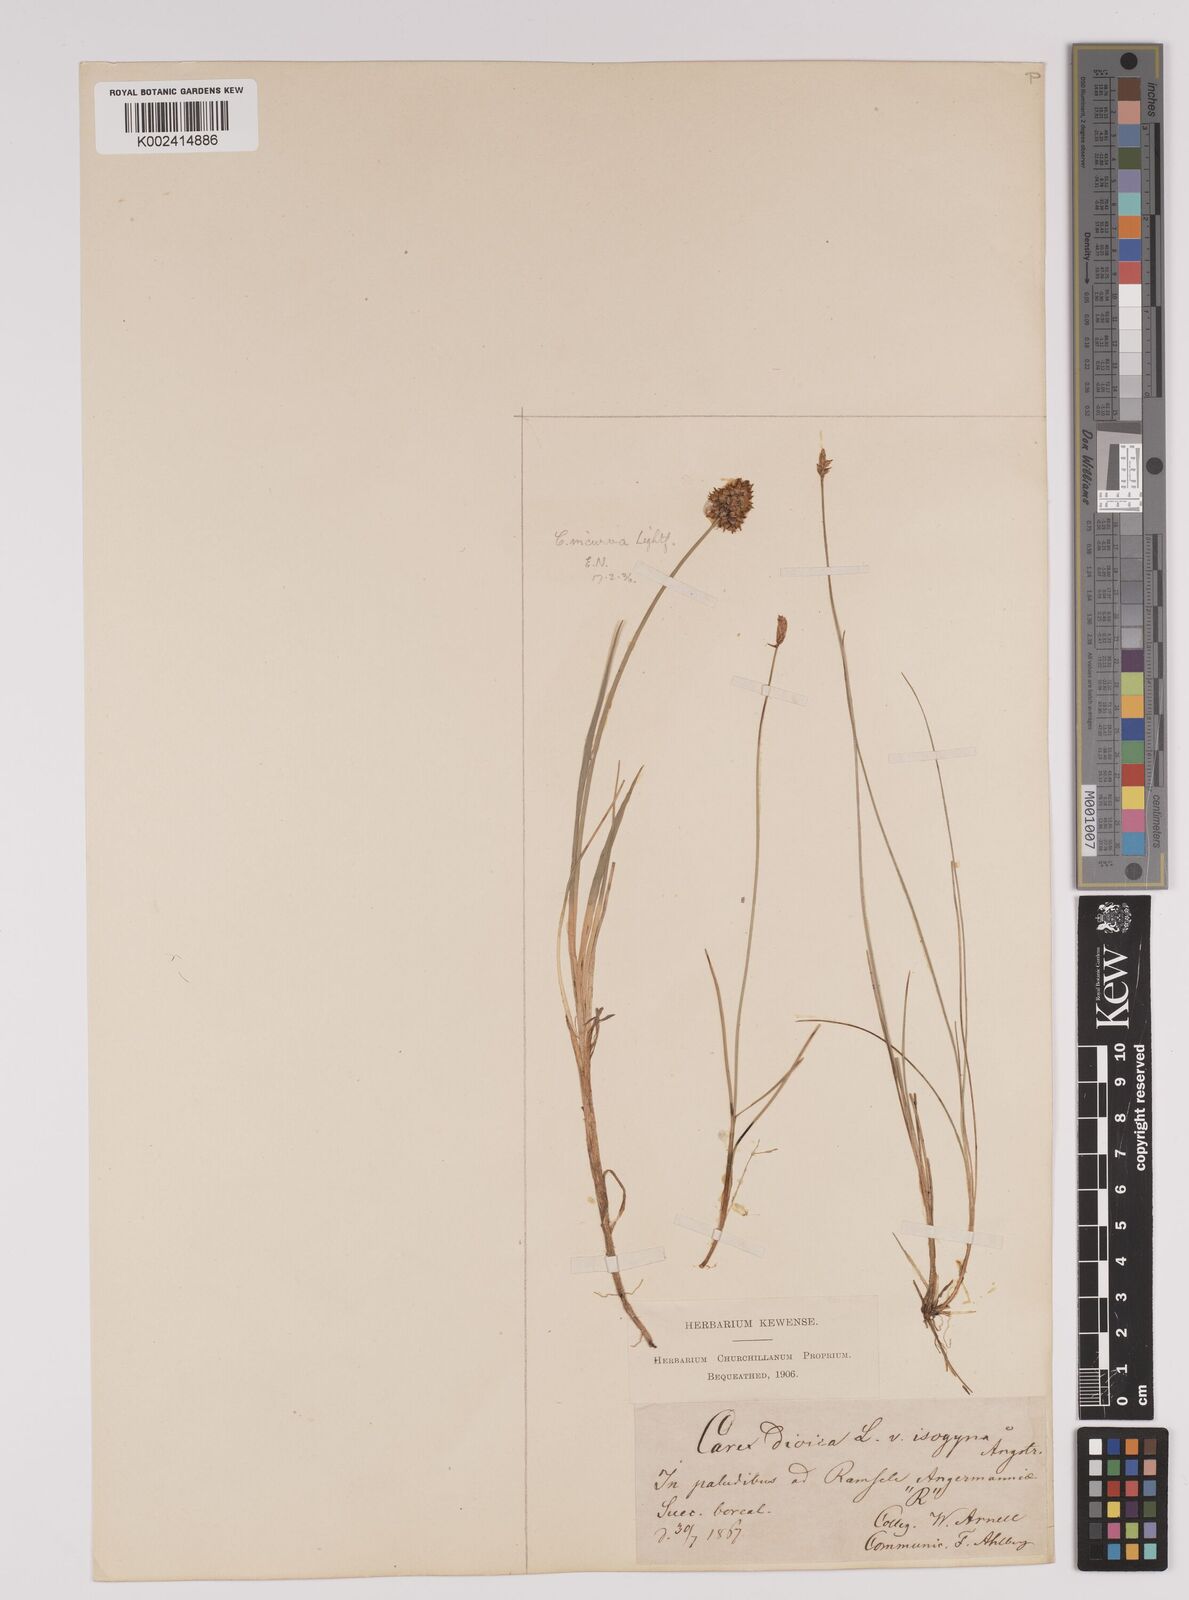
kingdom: Plantae
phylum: Tracheophyta
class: Liliopsida
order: Poales
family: Cyperaceae
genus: Carex
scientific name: Carex dioica
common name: Dioecious sedge
